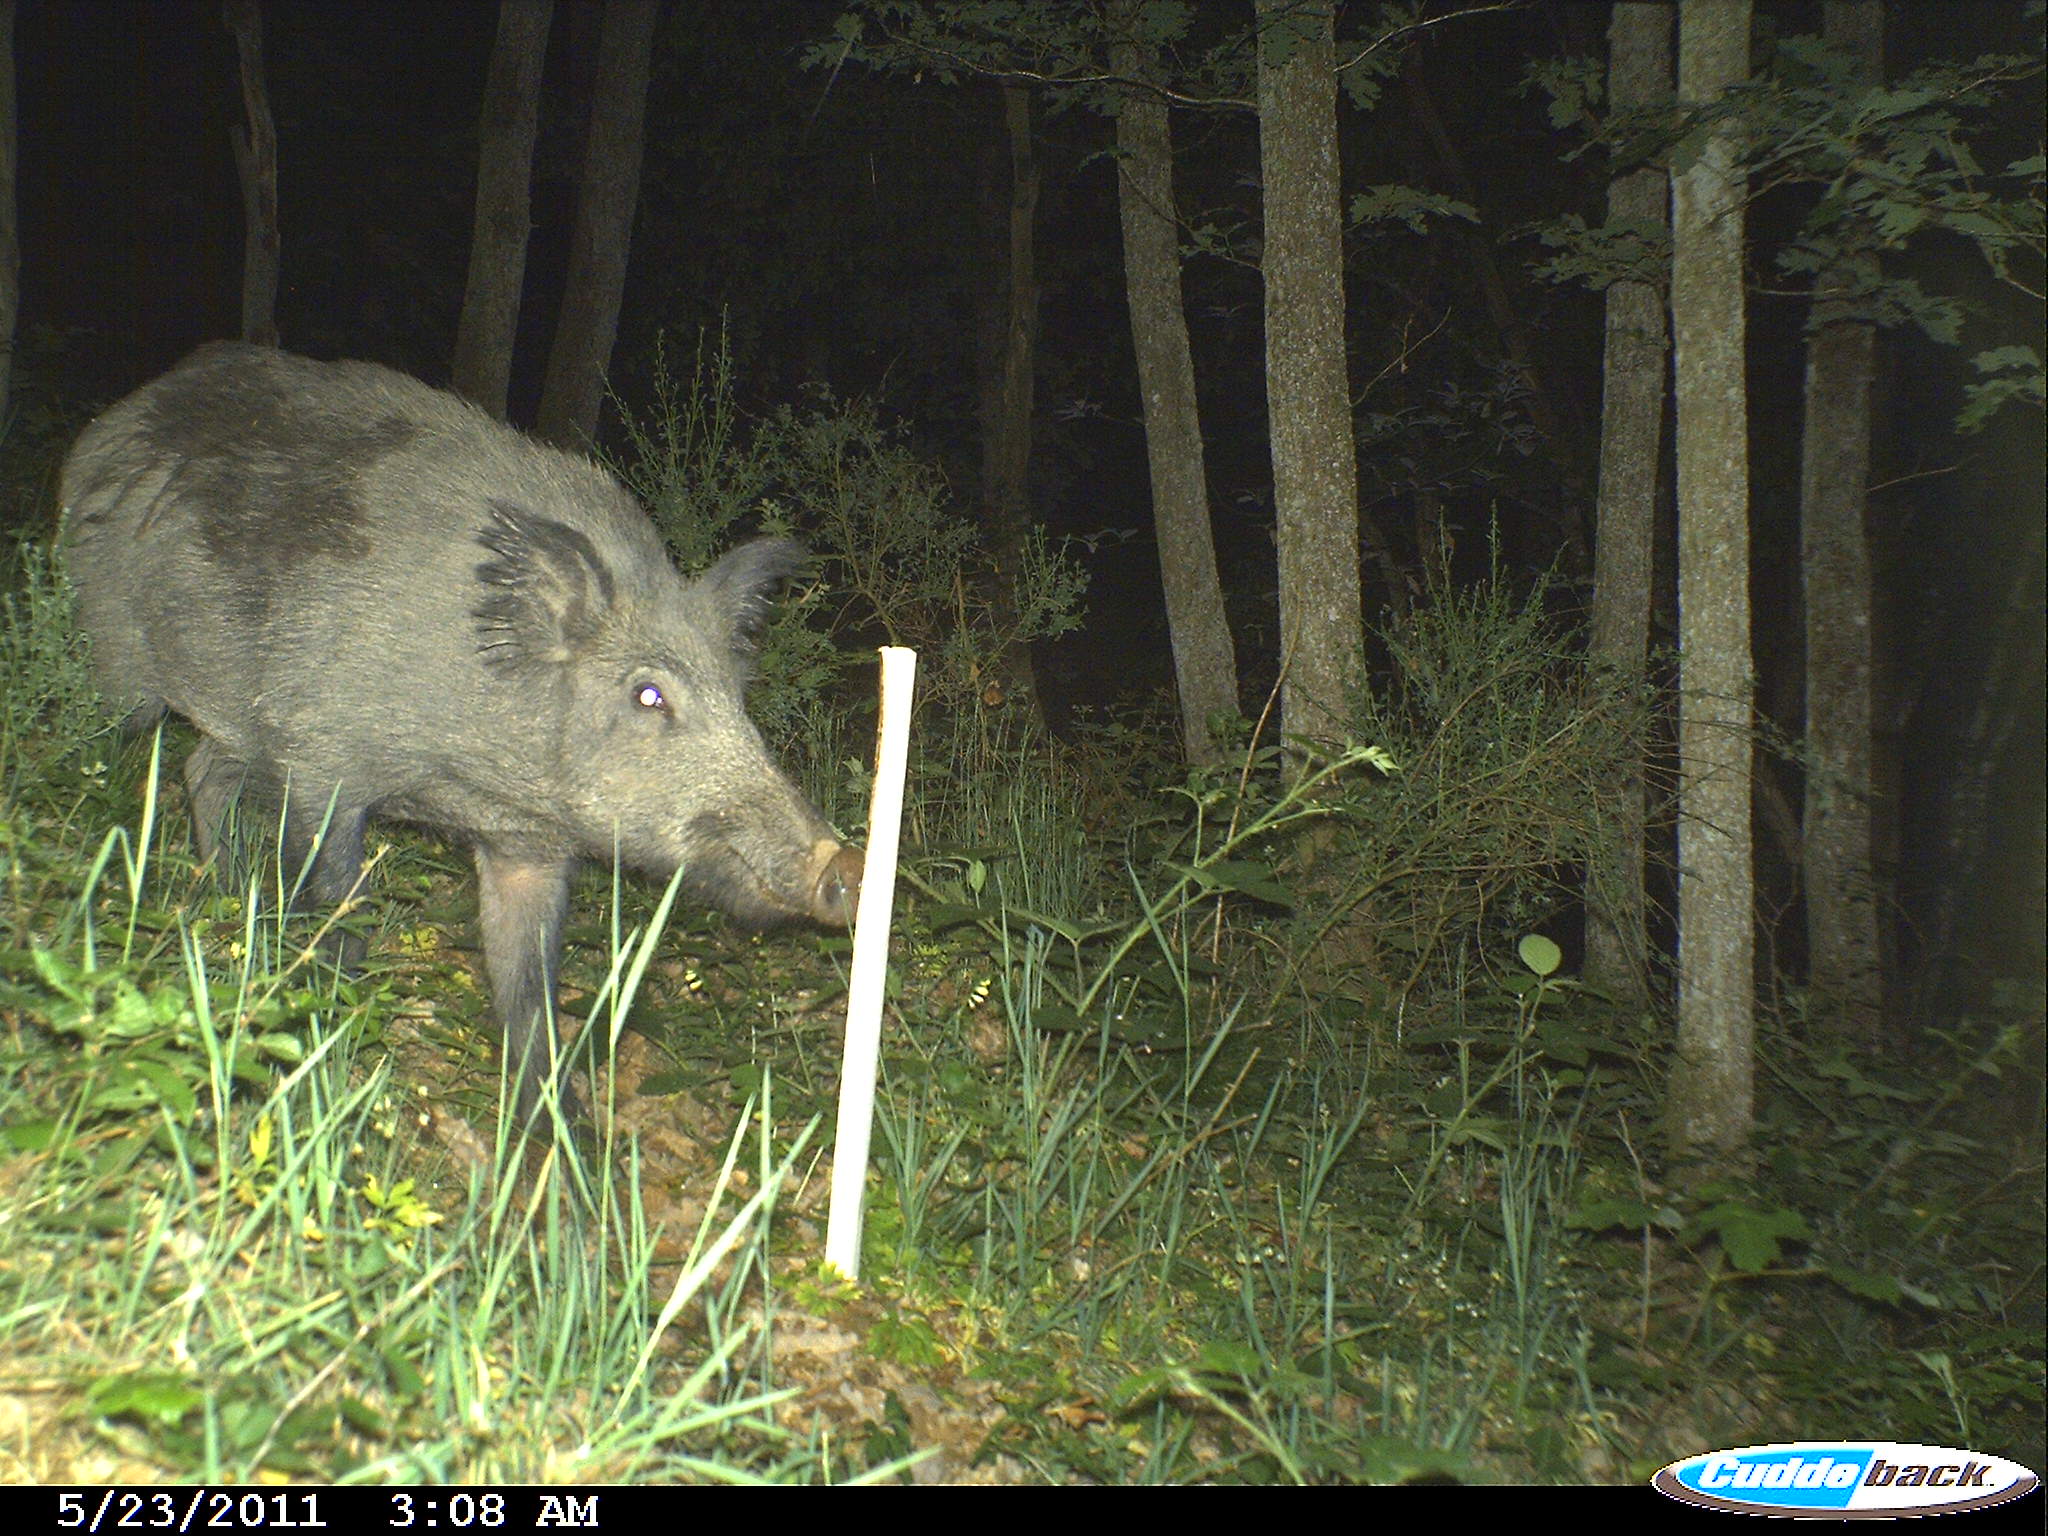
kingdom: Animalia
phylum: Chordata
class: Mammalia
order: Artiodactyla
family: Suidae
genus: Sus
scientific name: Sus scrofa
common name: Wild boar
